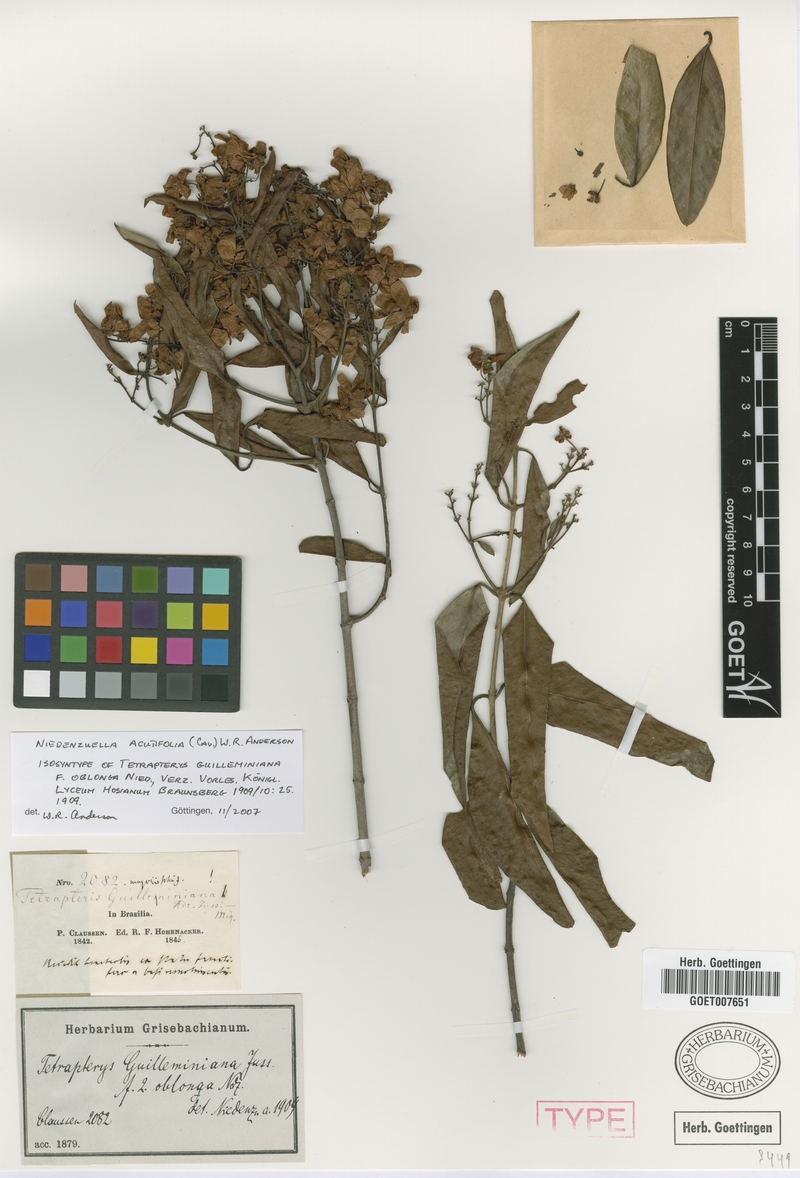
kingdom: Plantae
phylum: Tracheophyta
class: Magnoliopsida
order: Malpighiales
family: Malpighiaceae
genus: Niedenzuella
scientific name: Niedenzuella acutifolia
